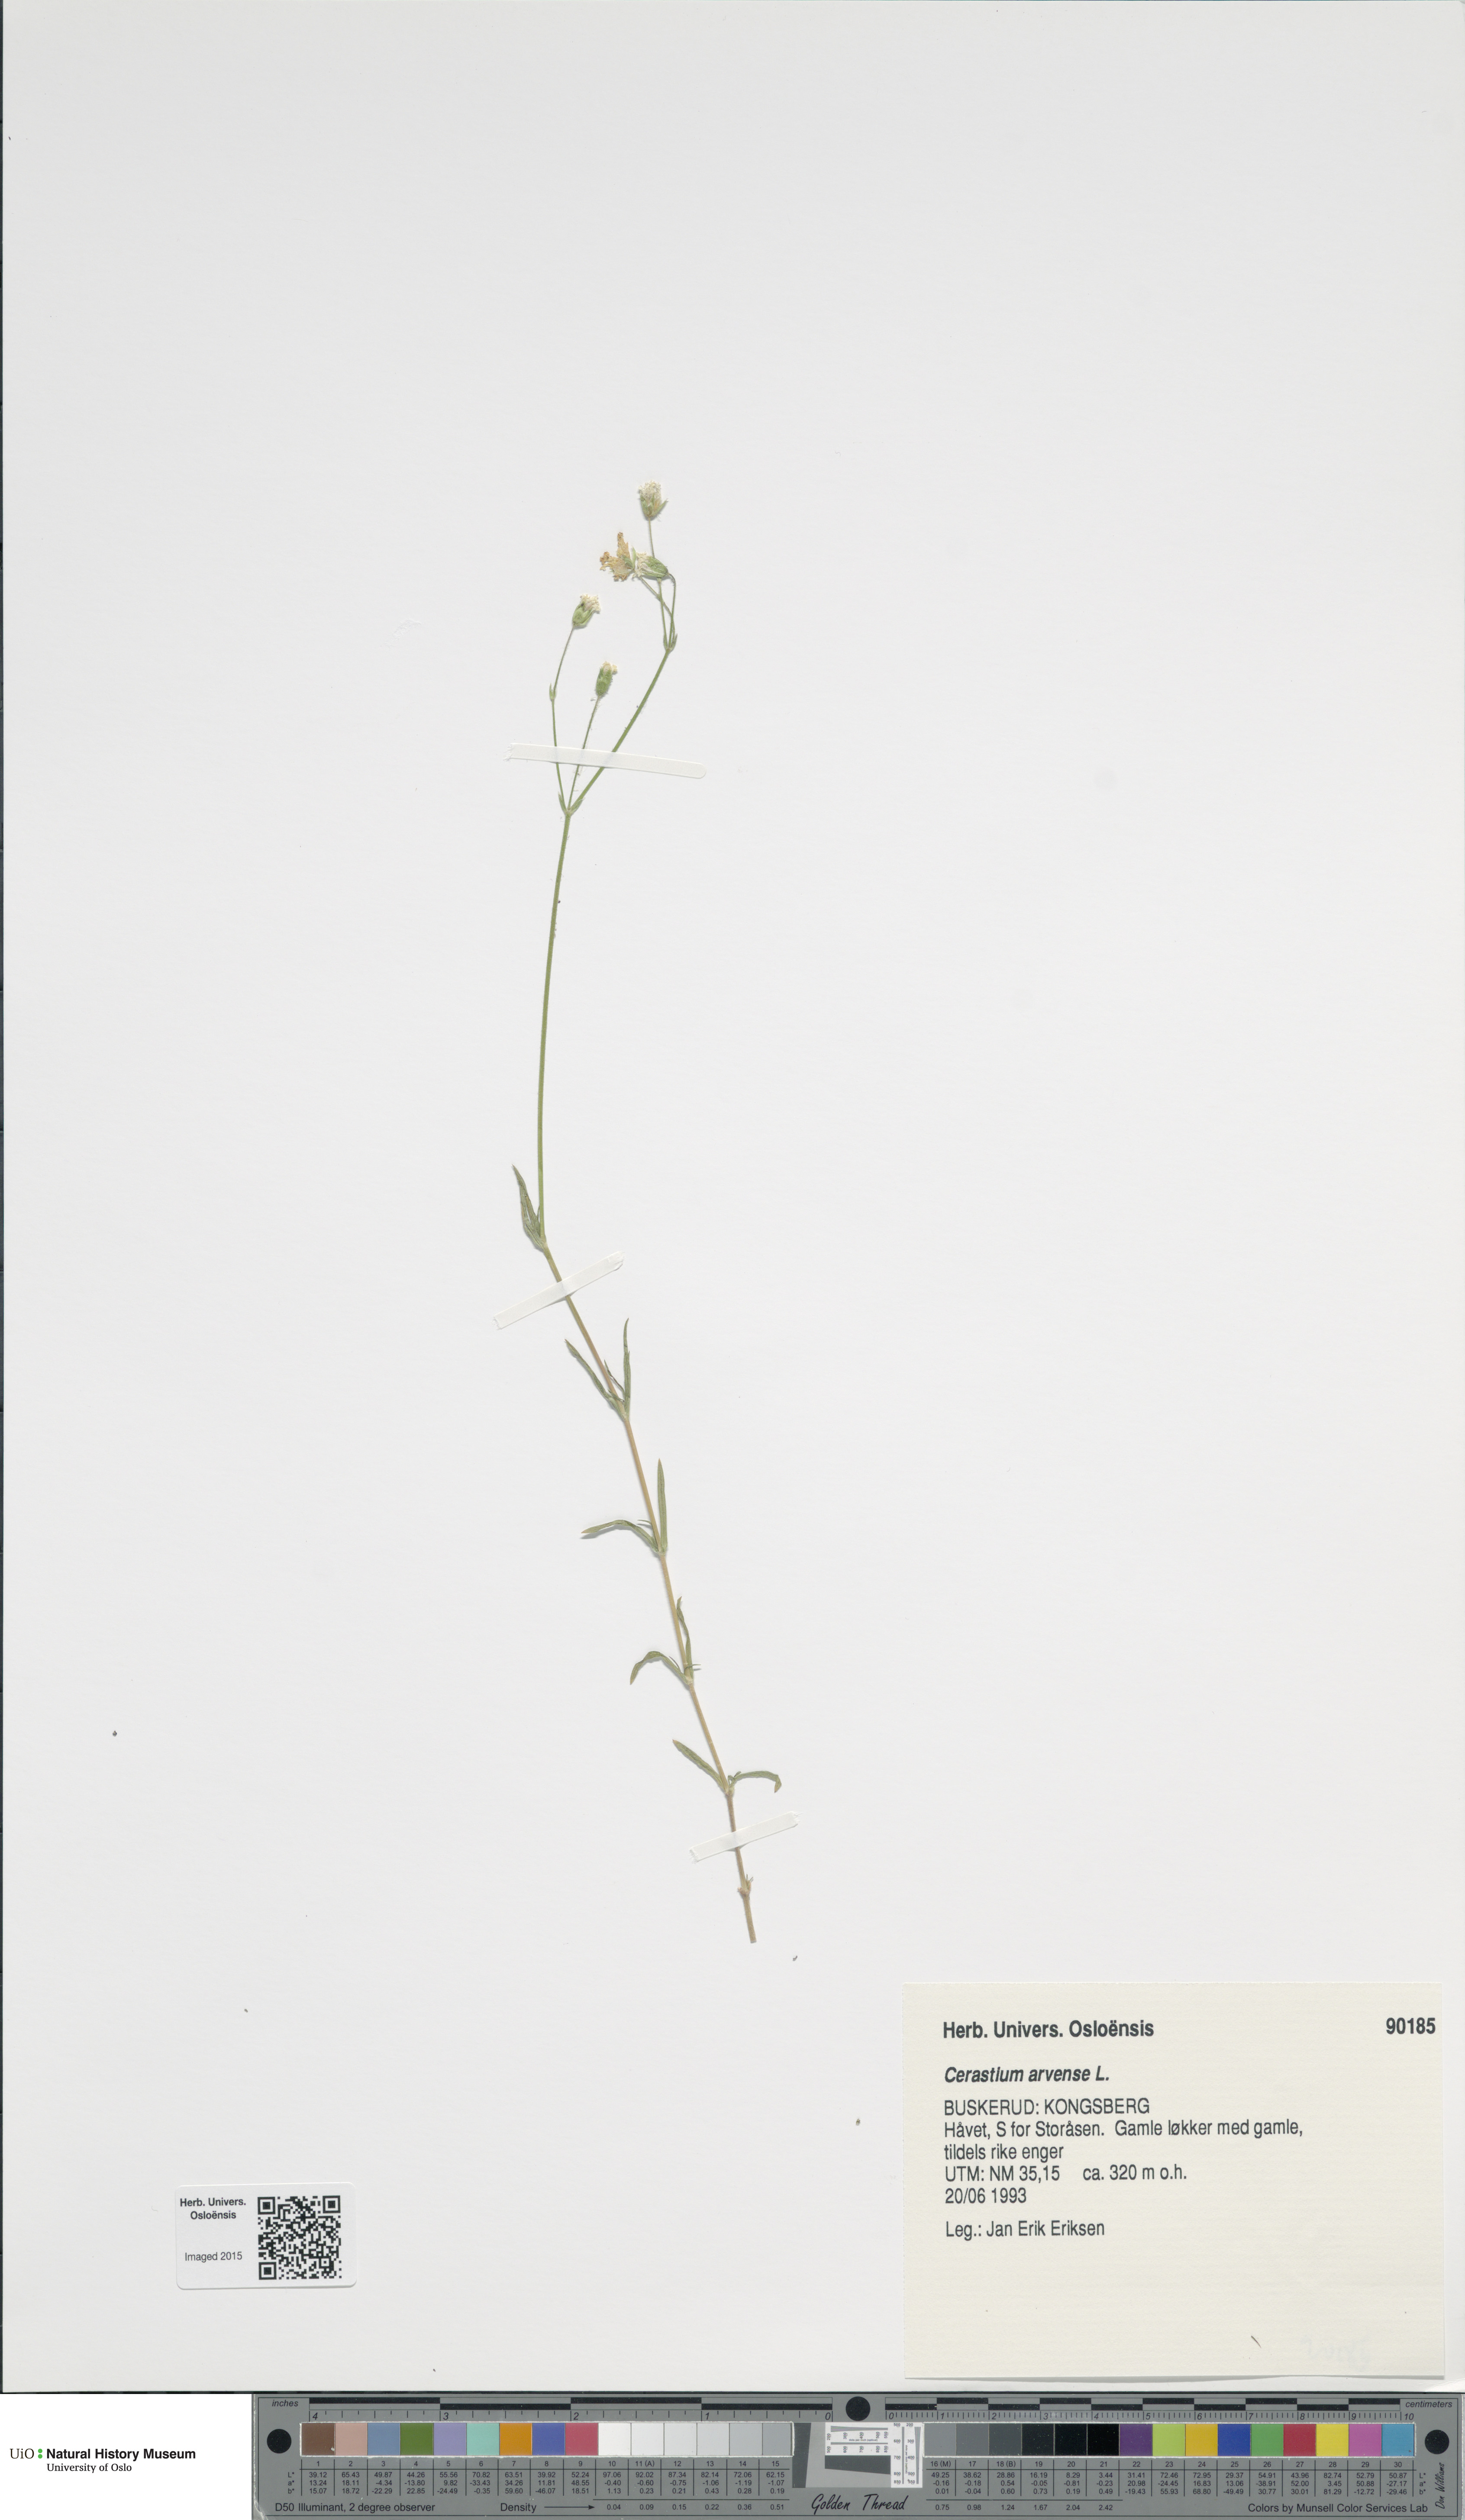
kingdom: Plantae
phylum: Tracheophyta
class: Magnoliopsida
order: Caryophyllales
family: Caryophyllaceae
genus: Cerastium
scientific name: Cerastium arvense
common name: Field mouse-ear
